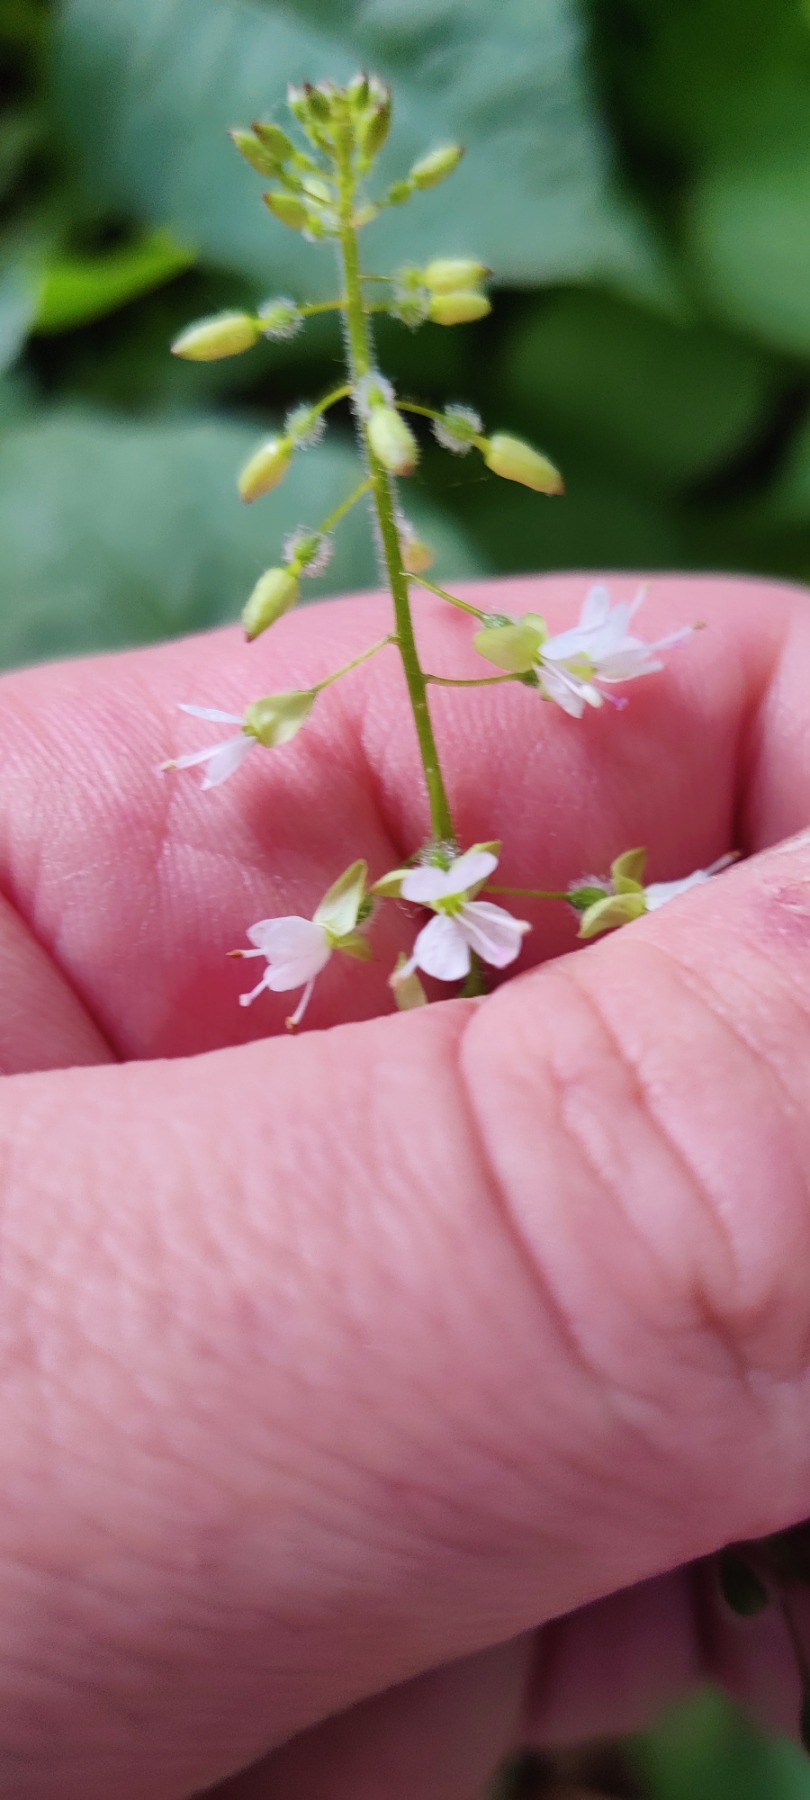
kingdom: Plantae
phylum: Tracheophyta
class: Magnoliopsida
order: Myrtales
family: Onagraceae
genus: Circaea
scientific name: Circaea lutetiana
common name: Dunet steffensurt
